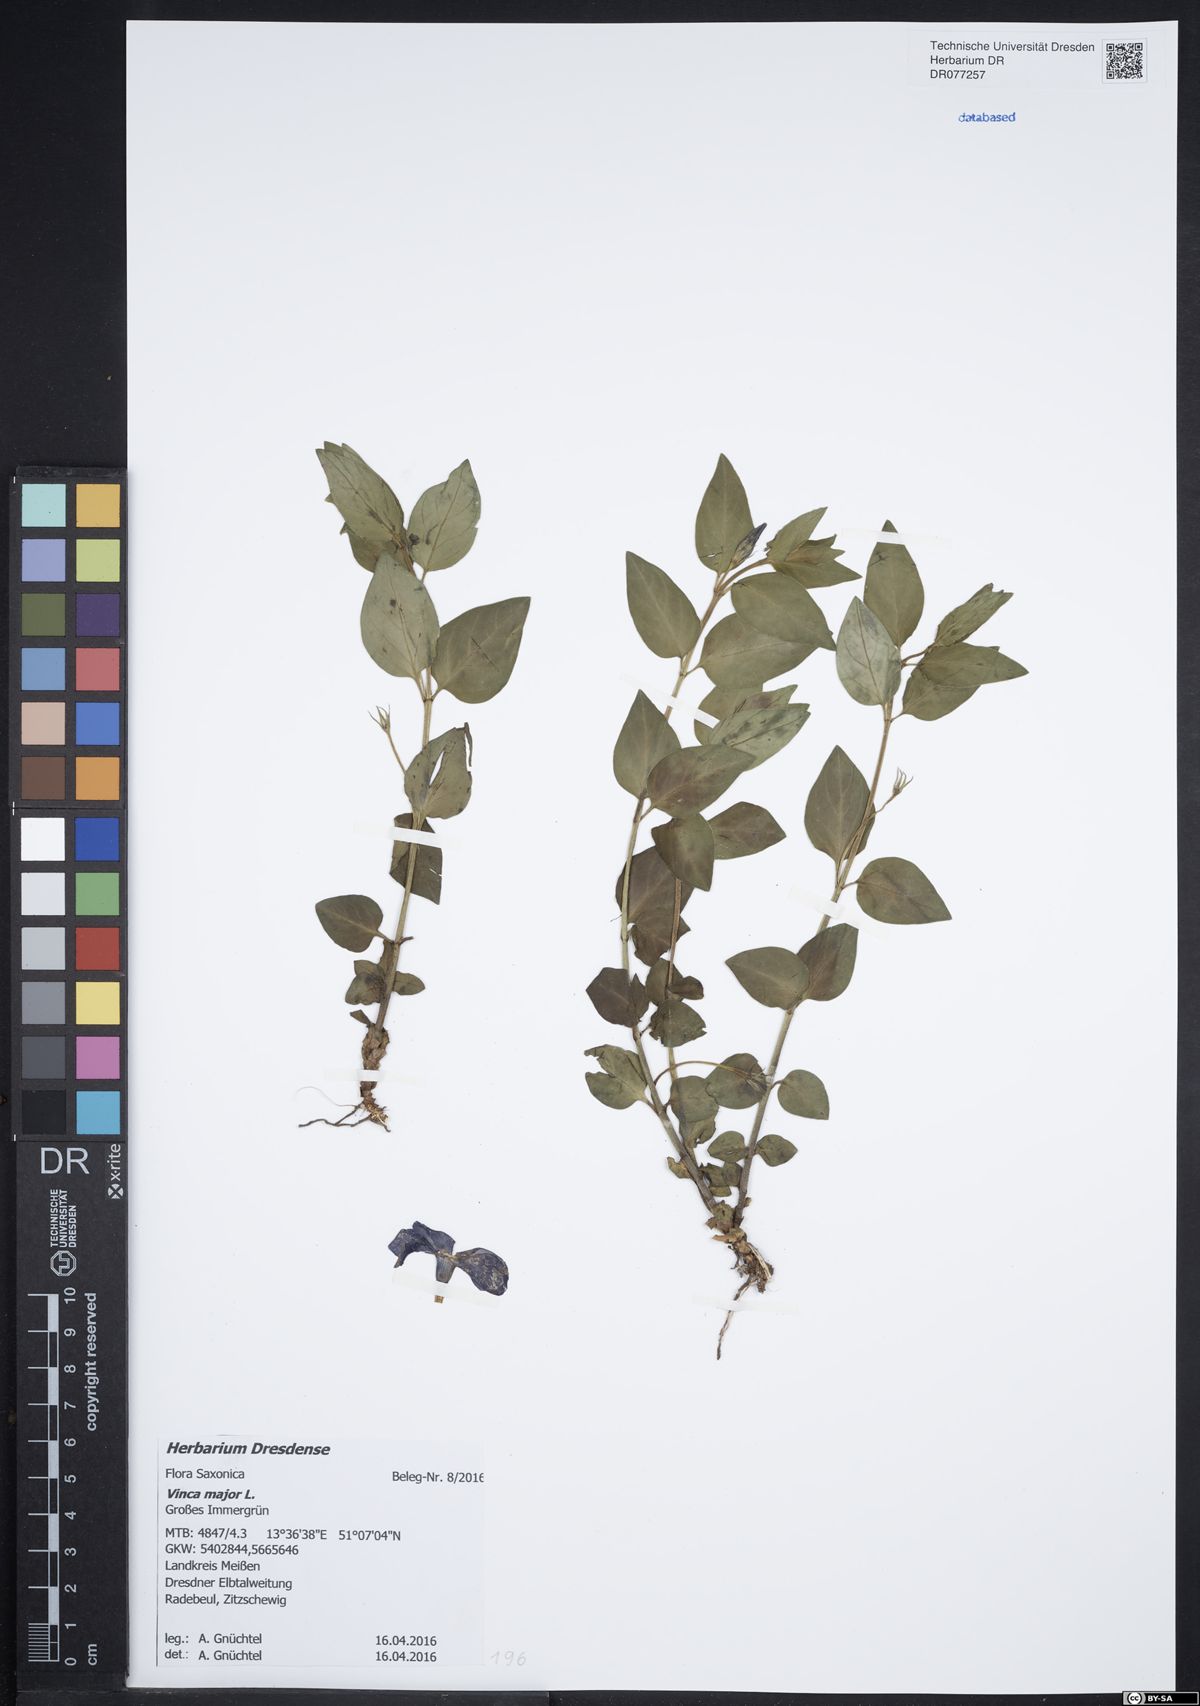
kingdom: Plantae
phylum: Tracheophyta
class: Magnoliopsida
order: Gentianales
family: Apocynaceae
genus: Vinca
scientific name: Vinca major
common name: Greater periwinkle
